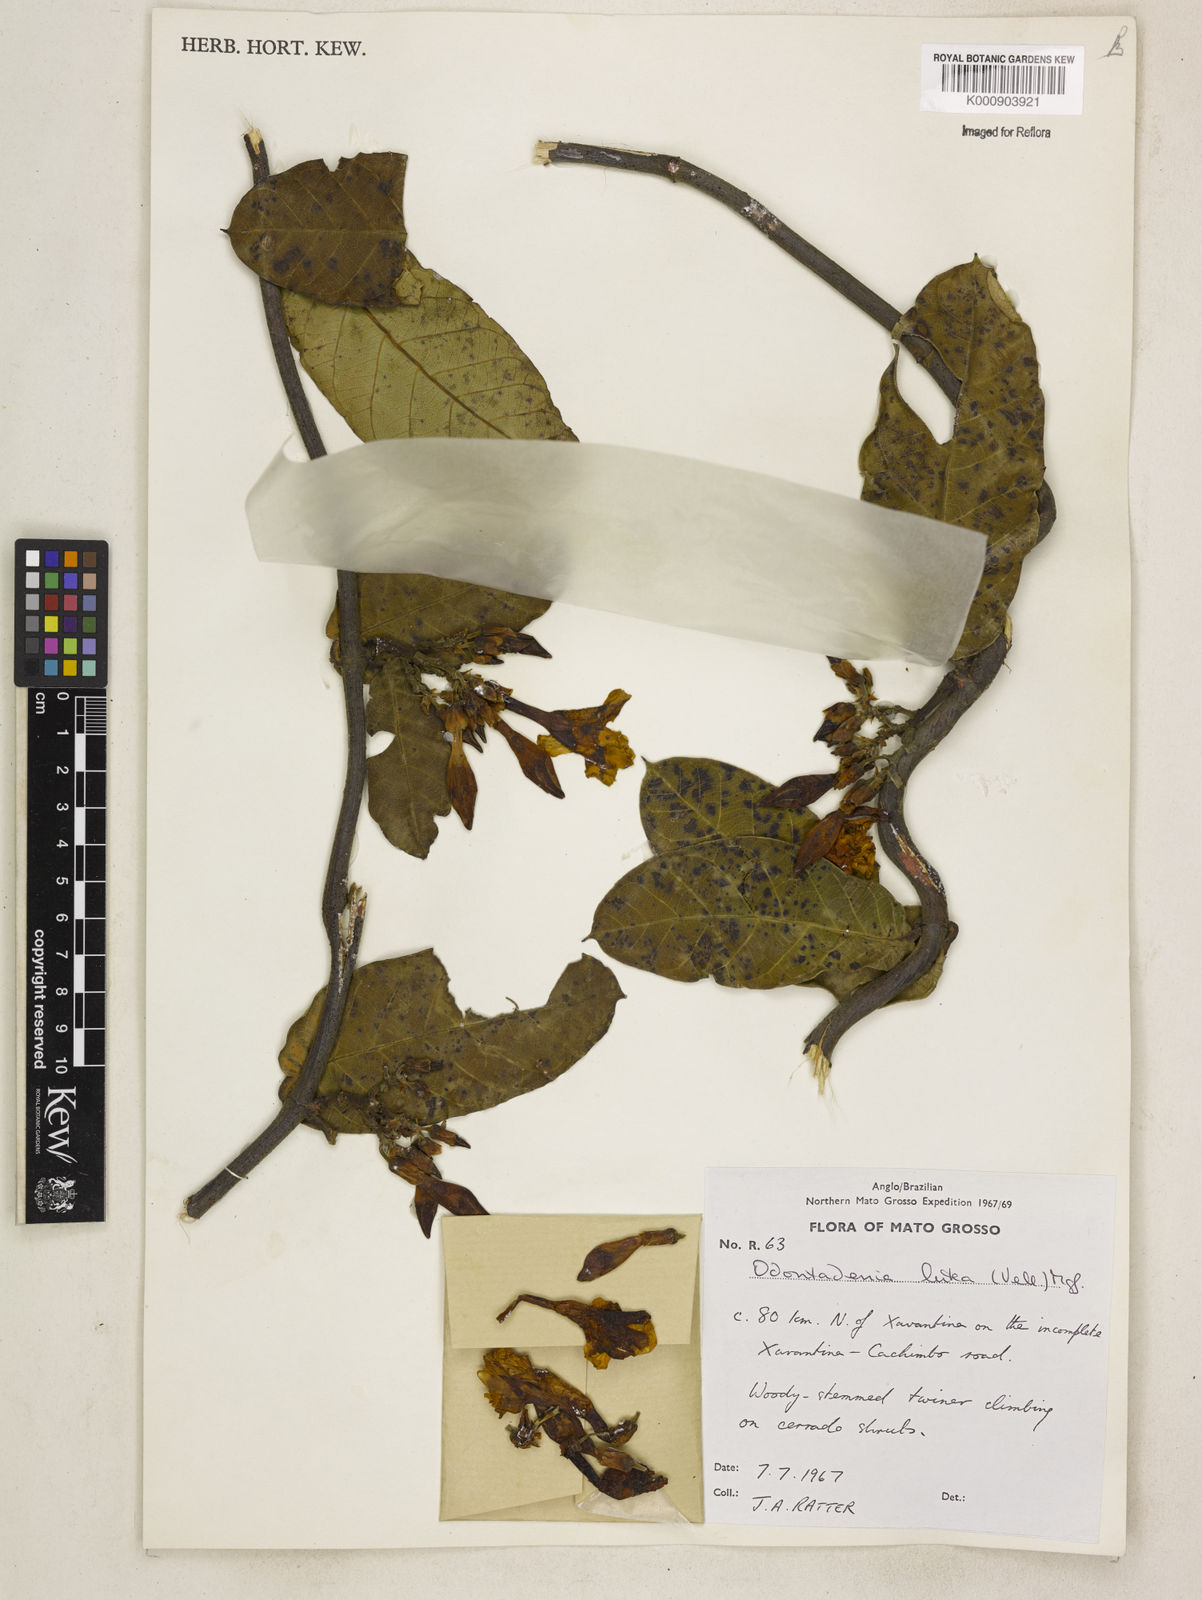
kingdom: Plantae
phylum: Tracheophyta
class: Magnoliopsida
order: Gentianales
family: Apocynaceae
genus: Odontadenia
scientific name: Odontadenia lutea
